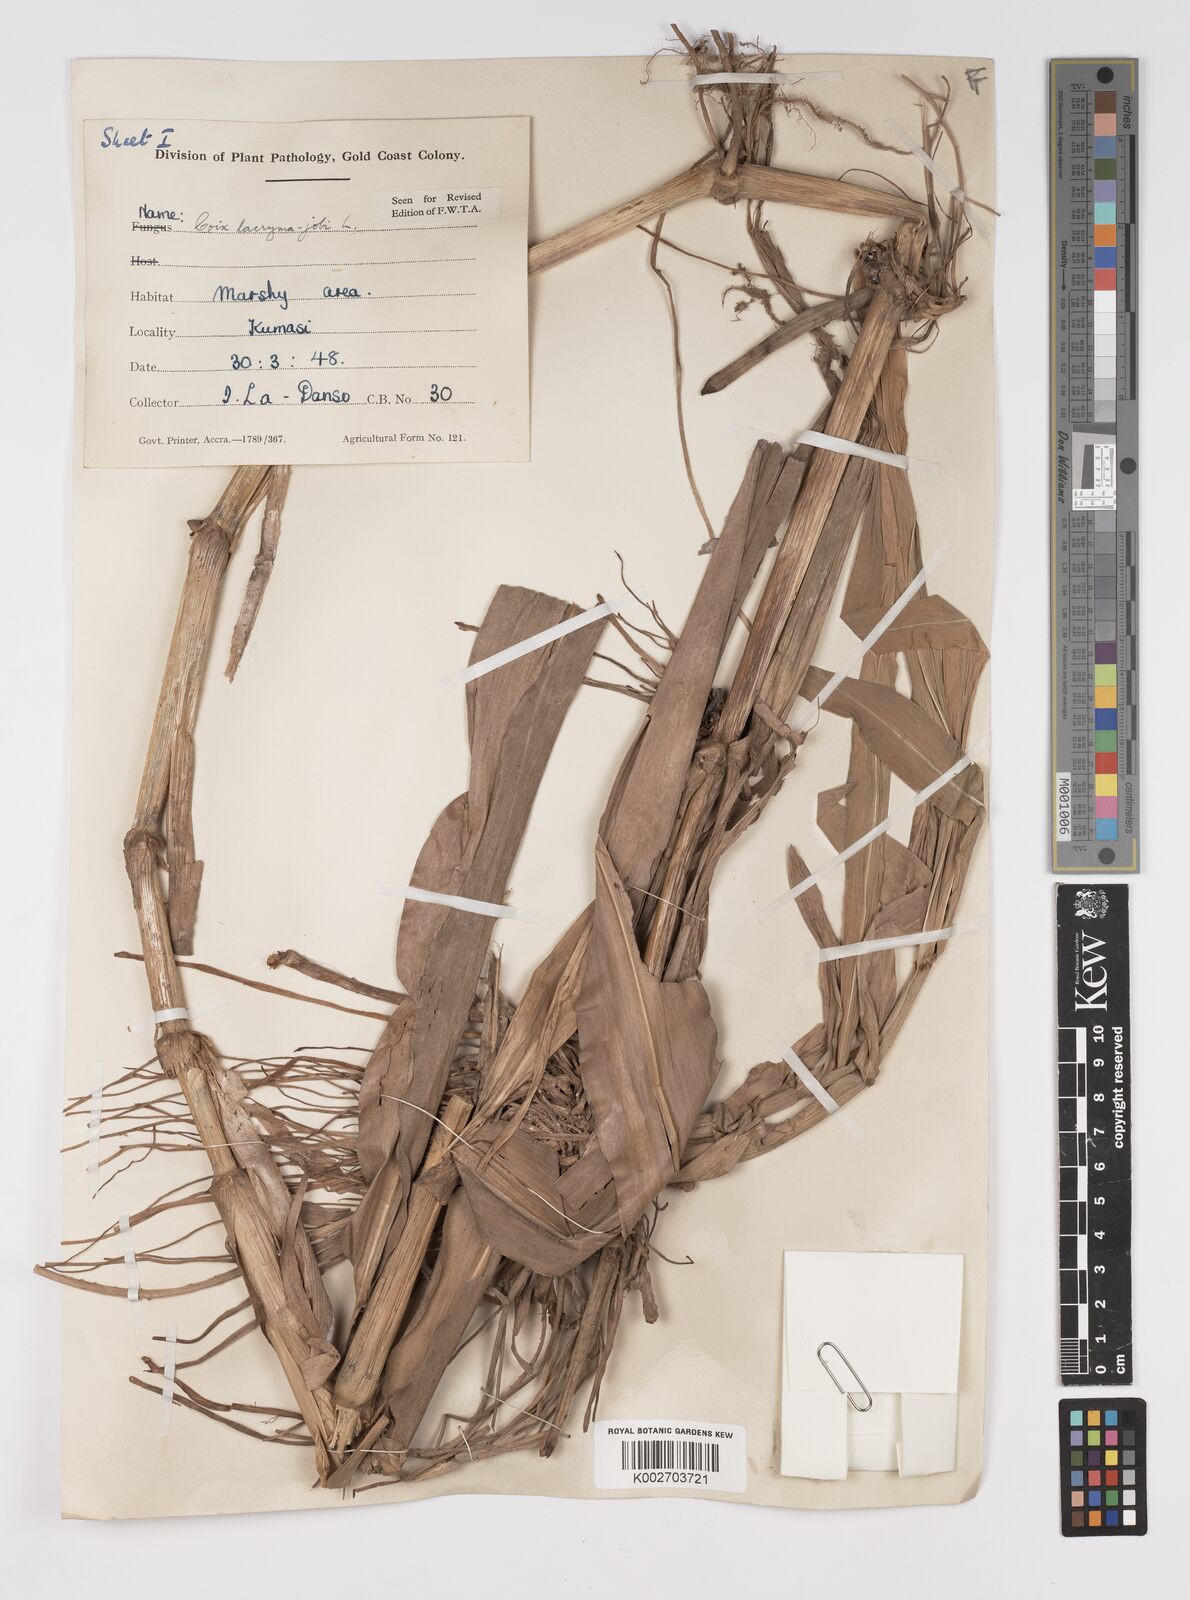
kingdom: Plantae
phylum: Tracheophyta
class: Liliopsida
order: Poales
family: Poaceae
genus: Coix
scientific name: Coix lacryma-jobi
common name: Job's tears
